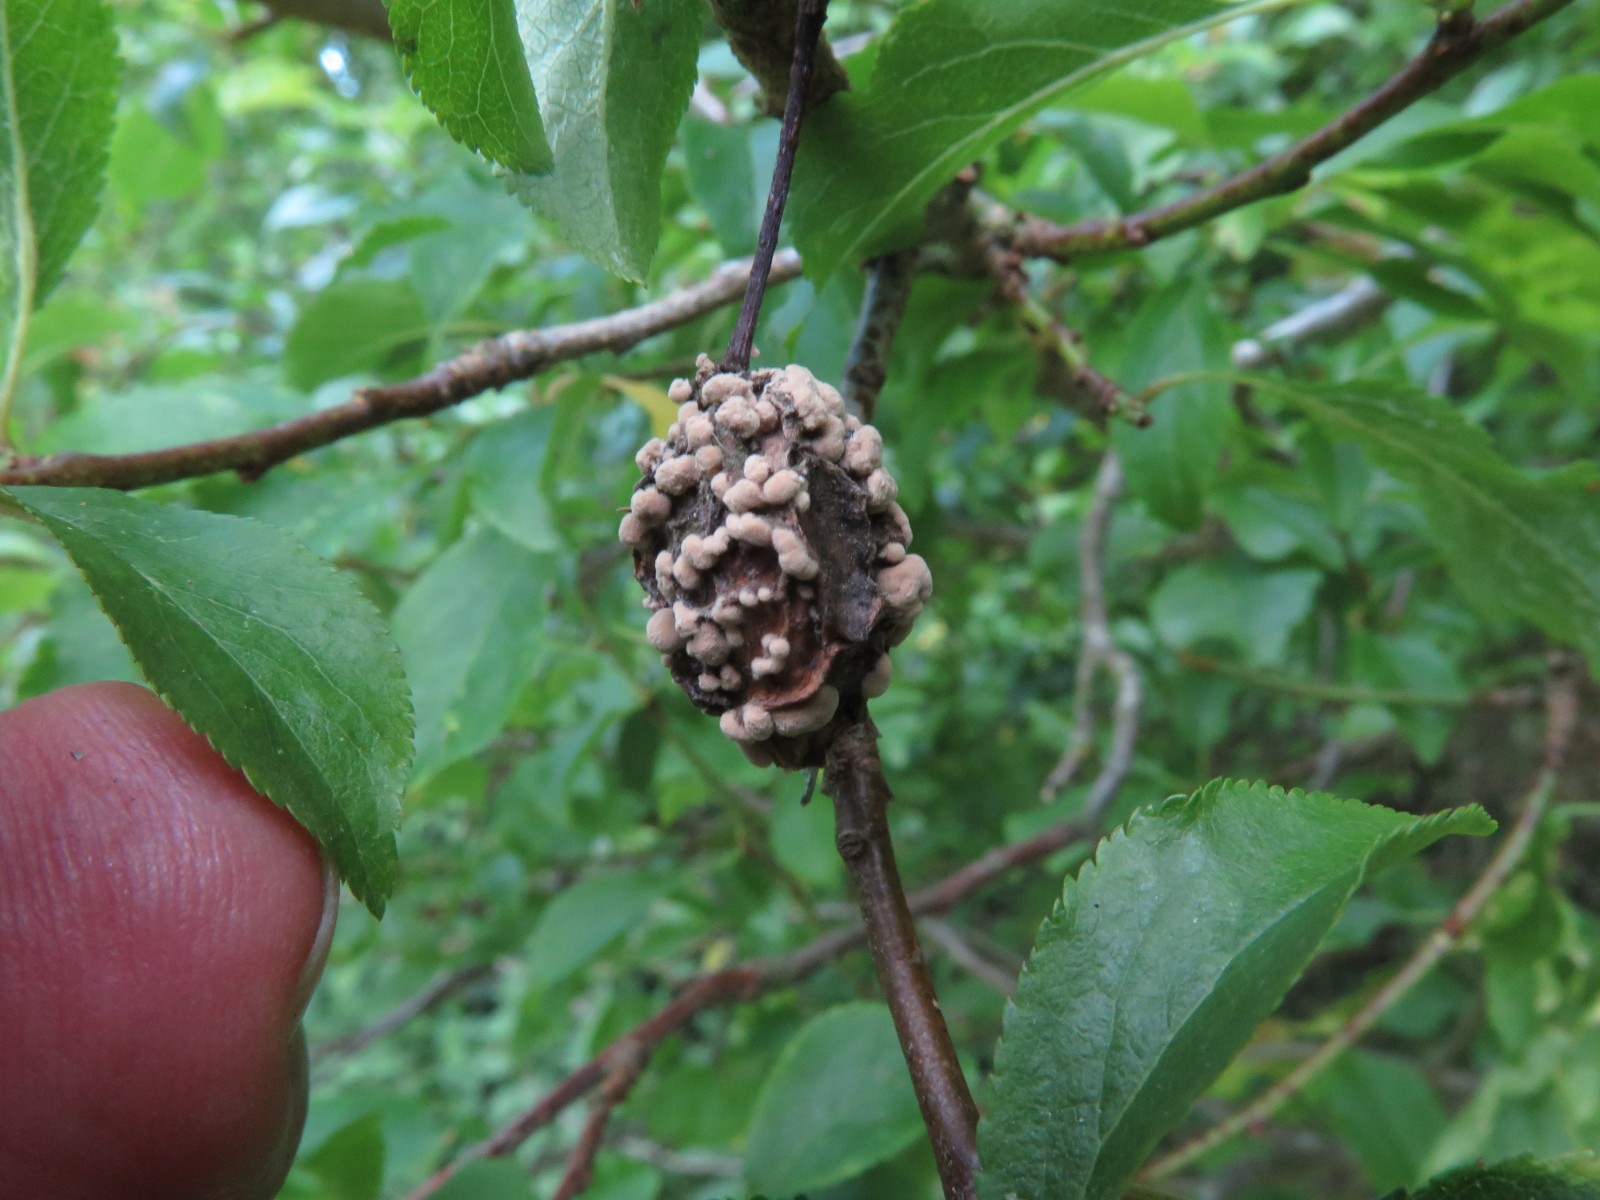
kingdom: Fungi
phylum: Ascomycota
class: Leotiomycetes
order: Helotiales
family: Sclerotiniaceae
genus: Monilinia
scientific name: Monilinia laxa
